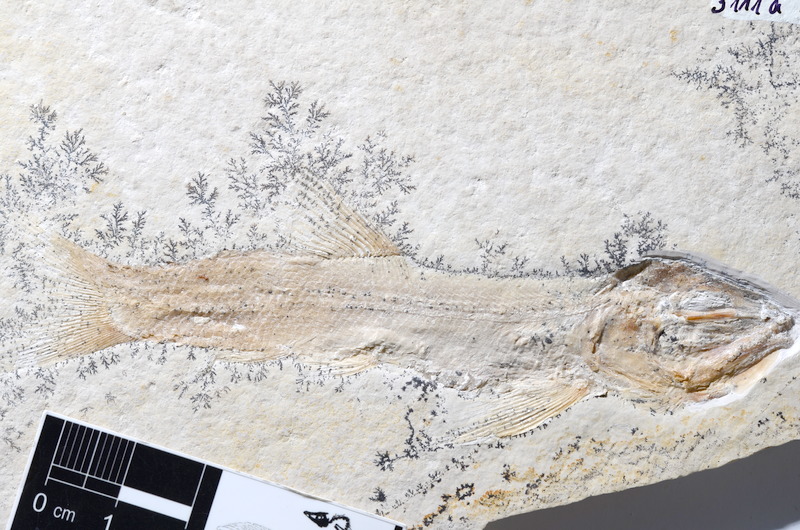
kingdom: Animalia
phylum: Chordata
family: Ophiopsiellidae
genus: Furo
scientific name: Furo
